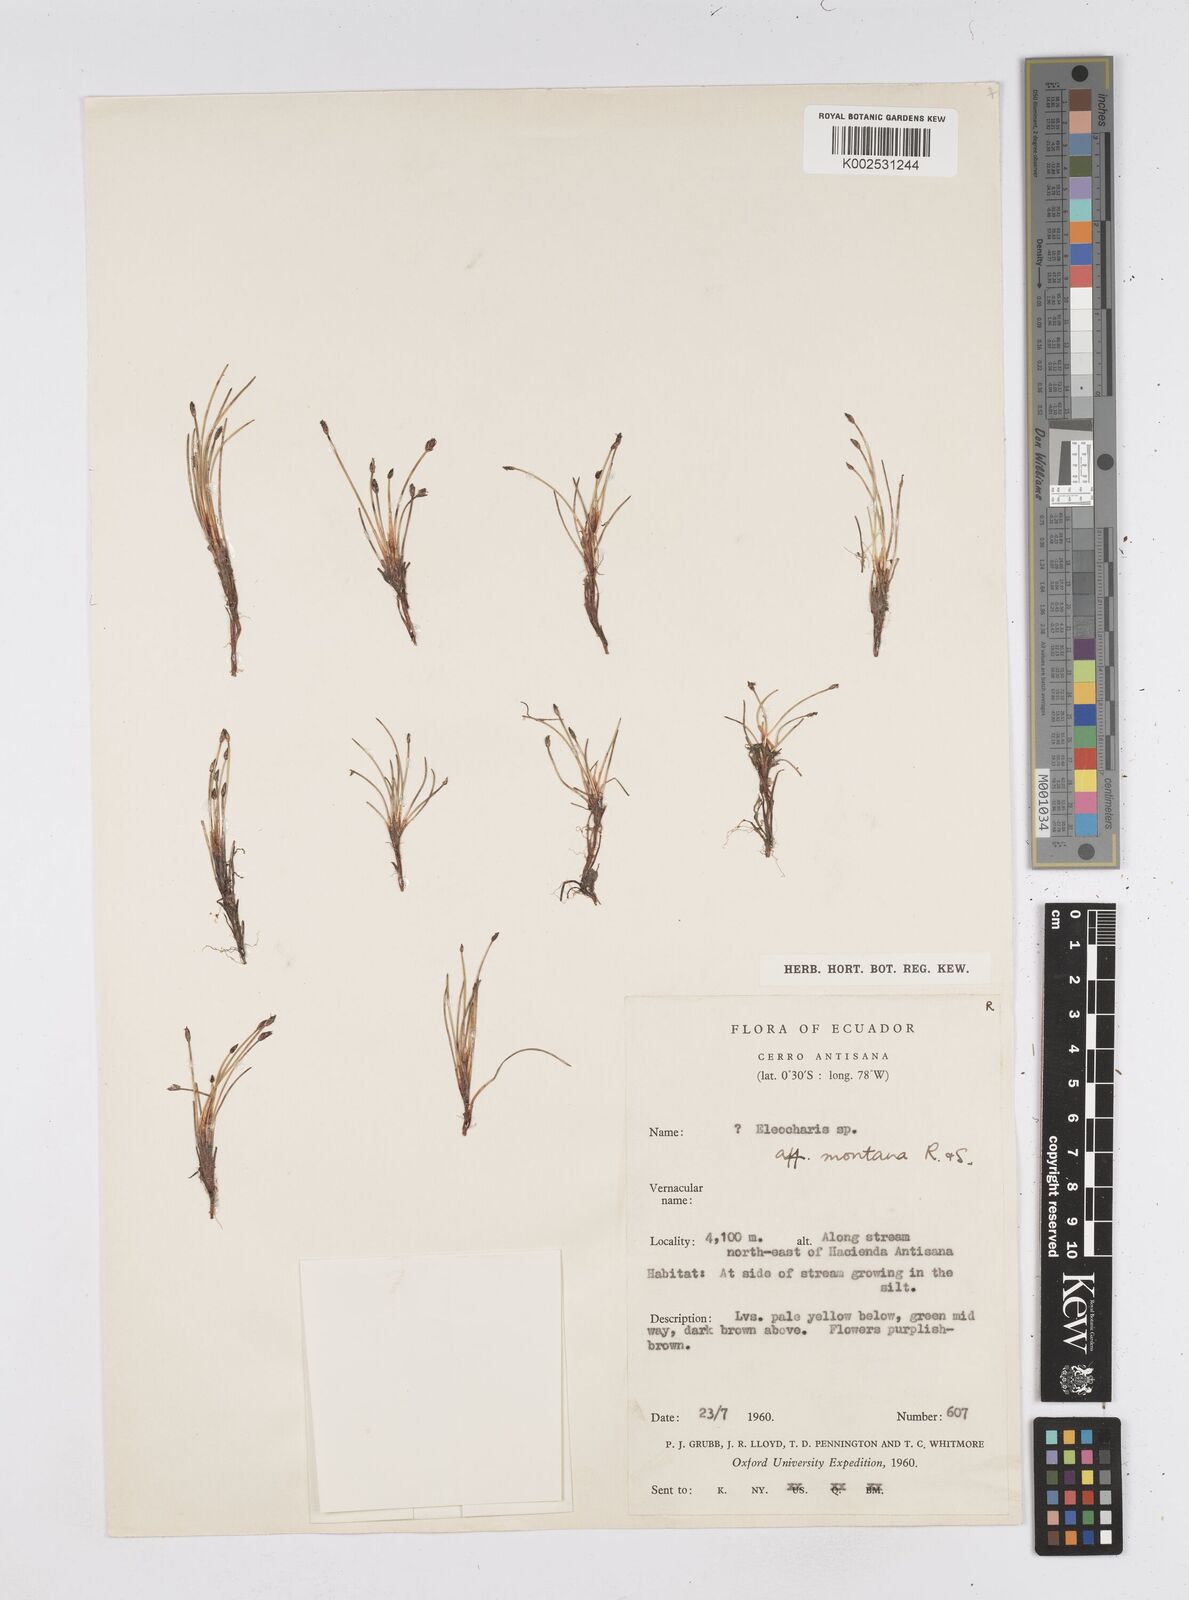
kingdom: Plantae
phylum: Tracheophyta
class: Liliopsida
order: Poales
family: Cyperaceae
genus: Eleocharis
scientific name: Eleocharis montana
